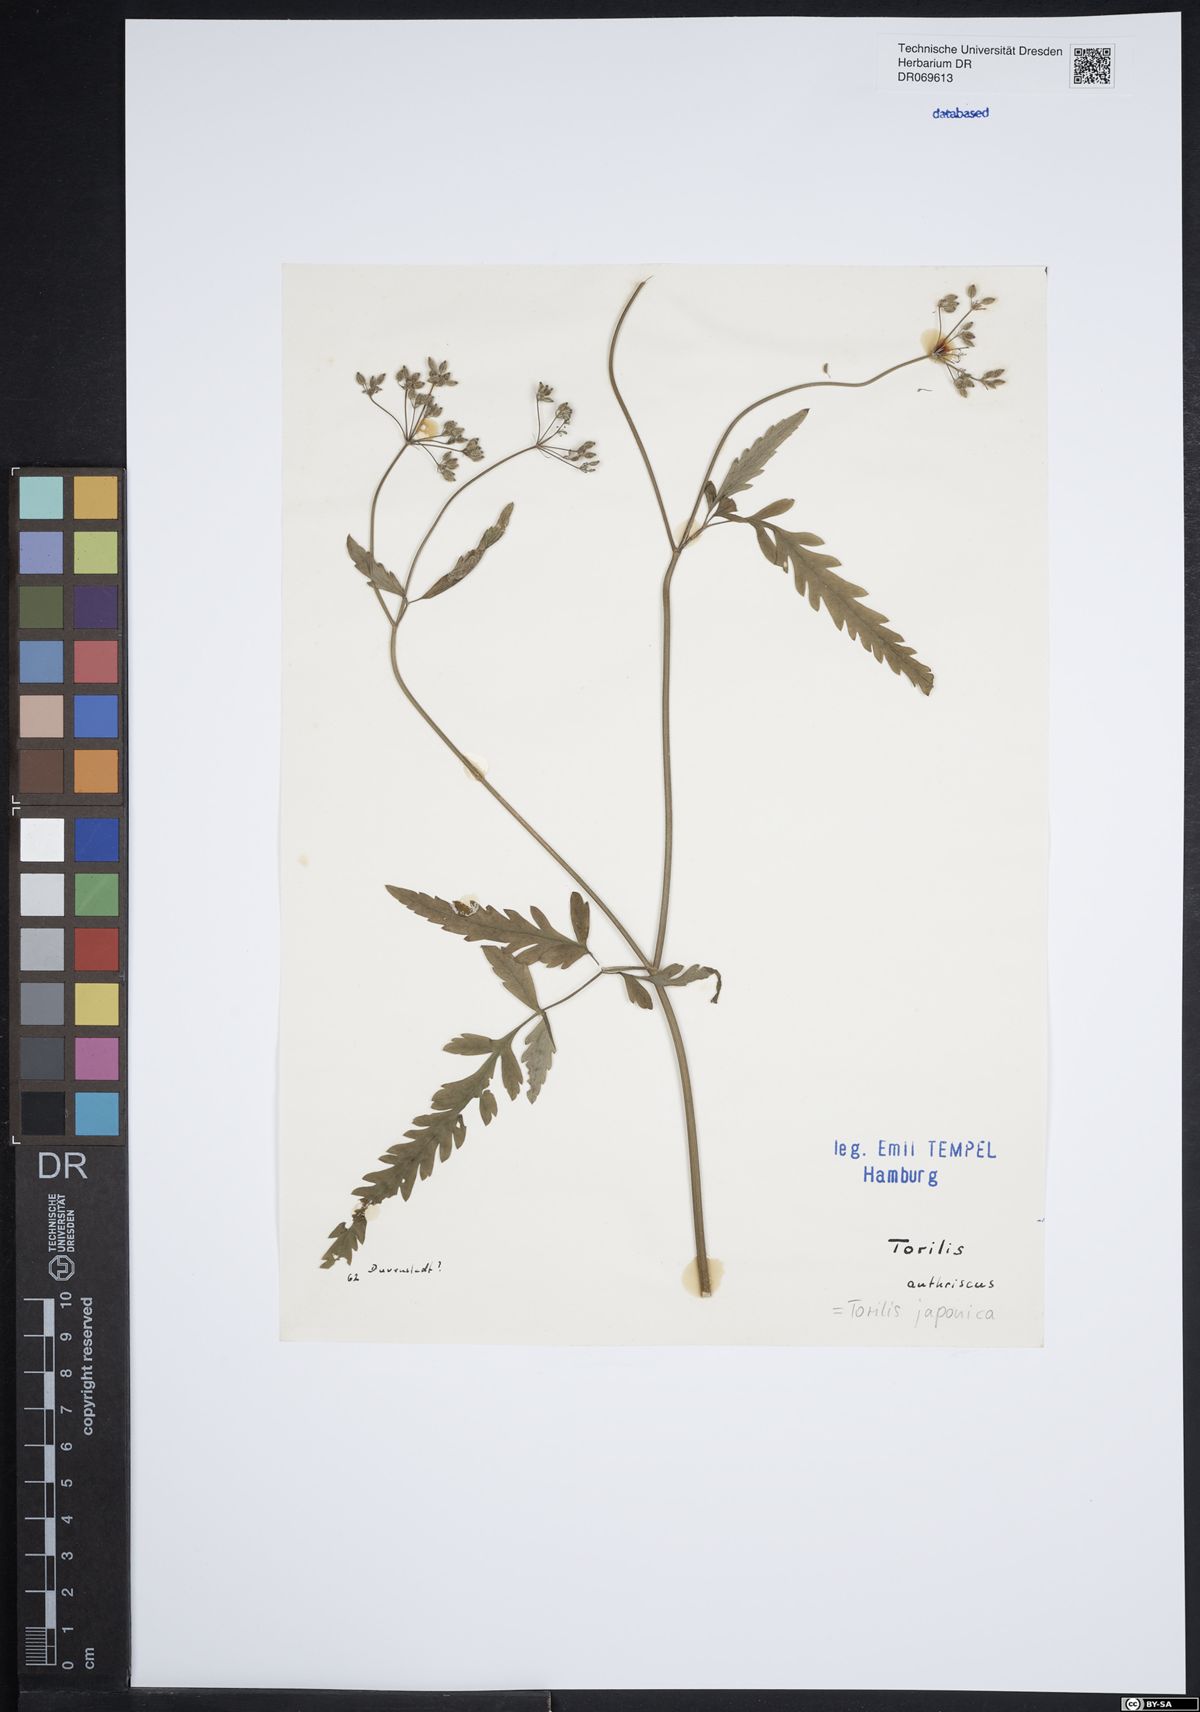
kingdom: Plantae
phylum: Tracheophyta
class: Magnoliopsida
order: Apiales
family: Apiaceae
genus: Torilis
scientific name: Torilis japonica
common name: Upright hedge-parsley
